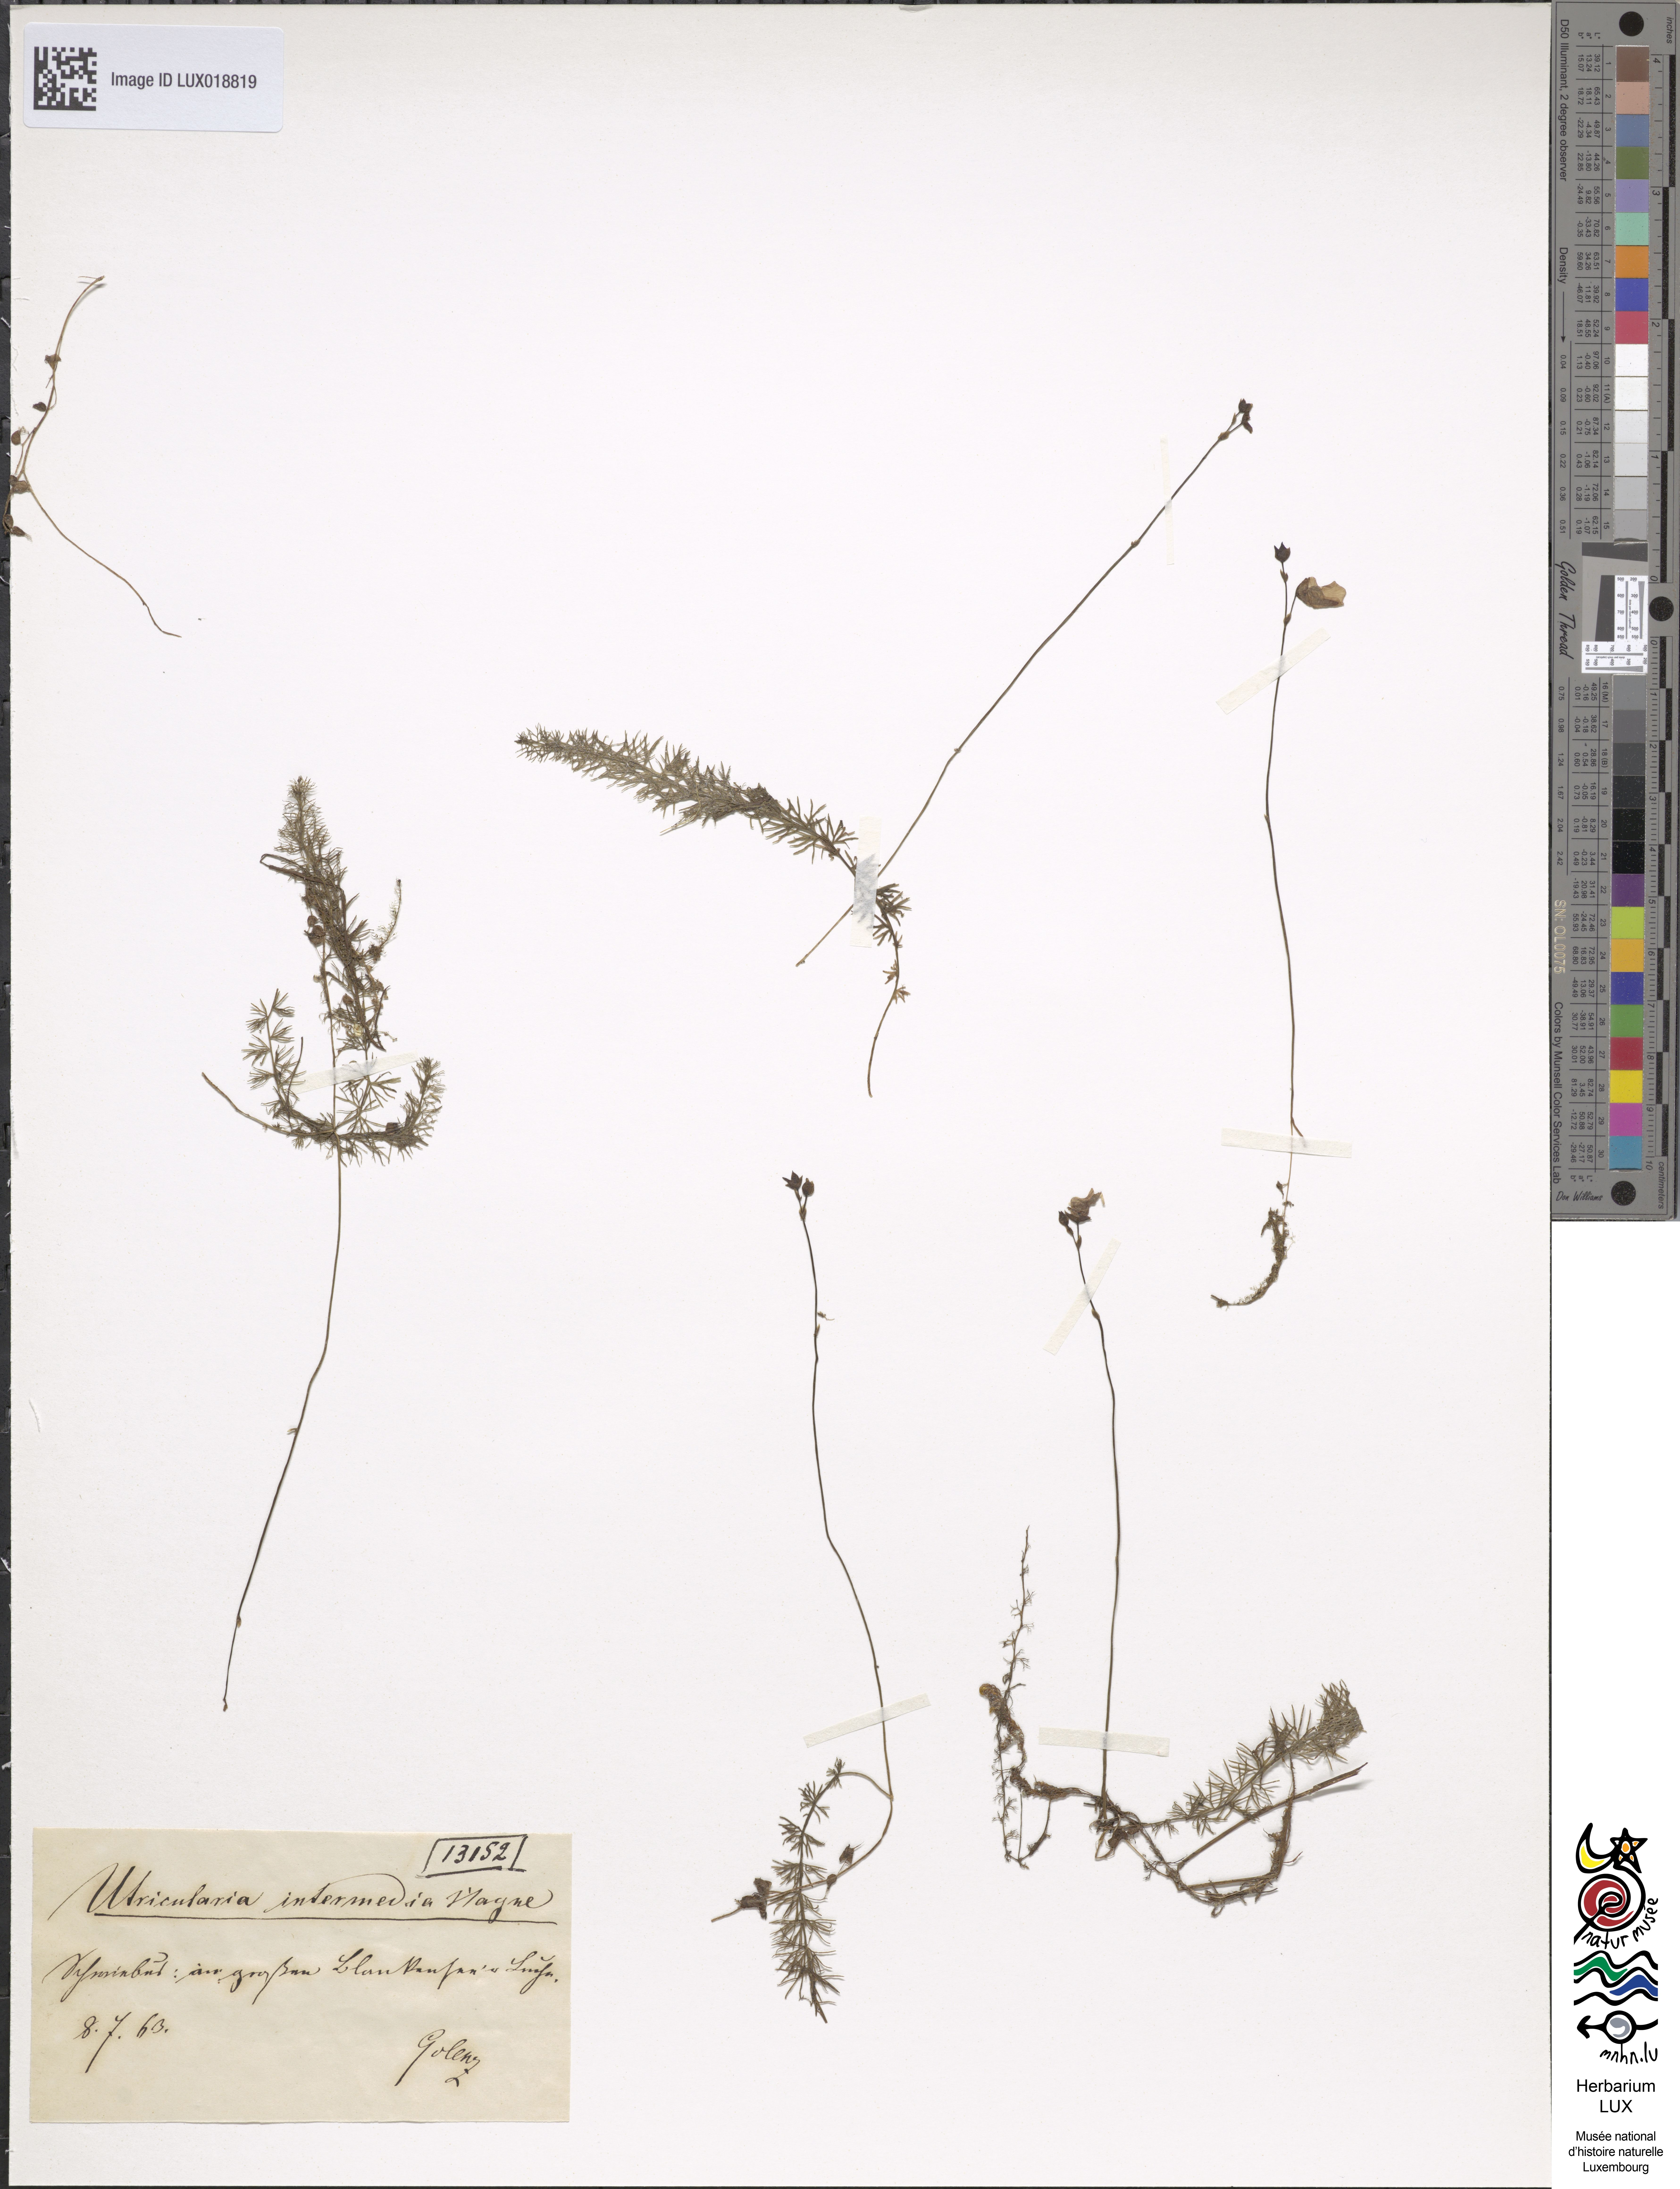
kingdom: Plantae
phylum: Tracheophyta
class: Magnoliopsida
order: Lamiales
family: Lentibulariaceae
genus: Utricularia
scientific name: Utricularia intermedia
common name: Intermediate bladderwort
